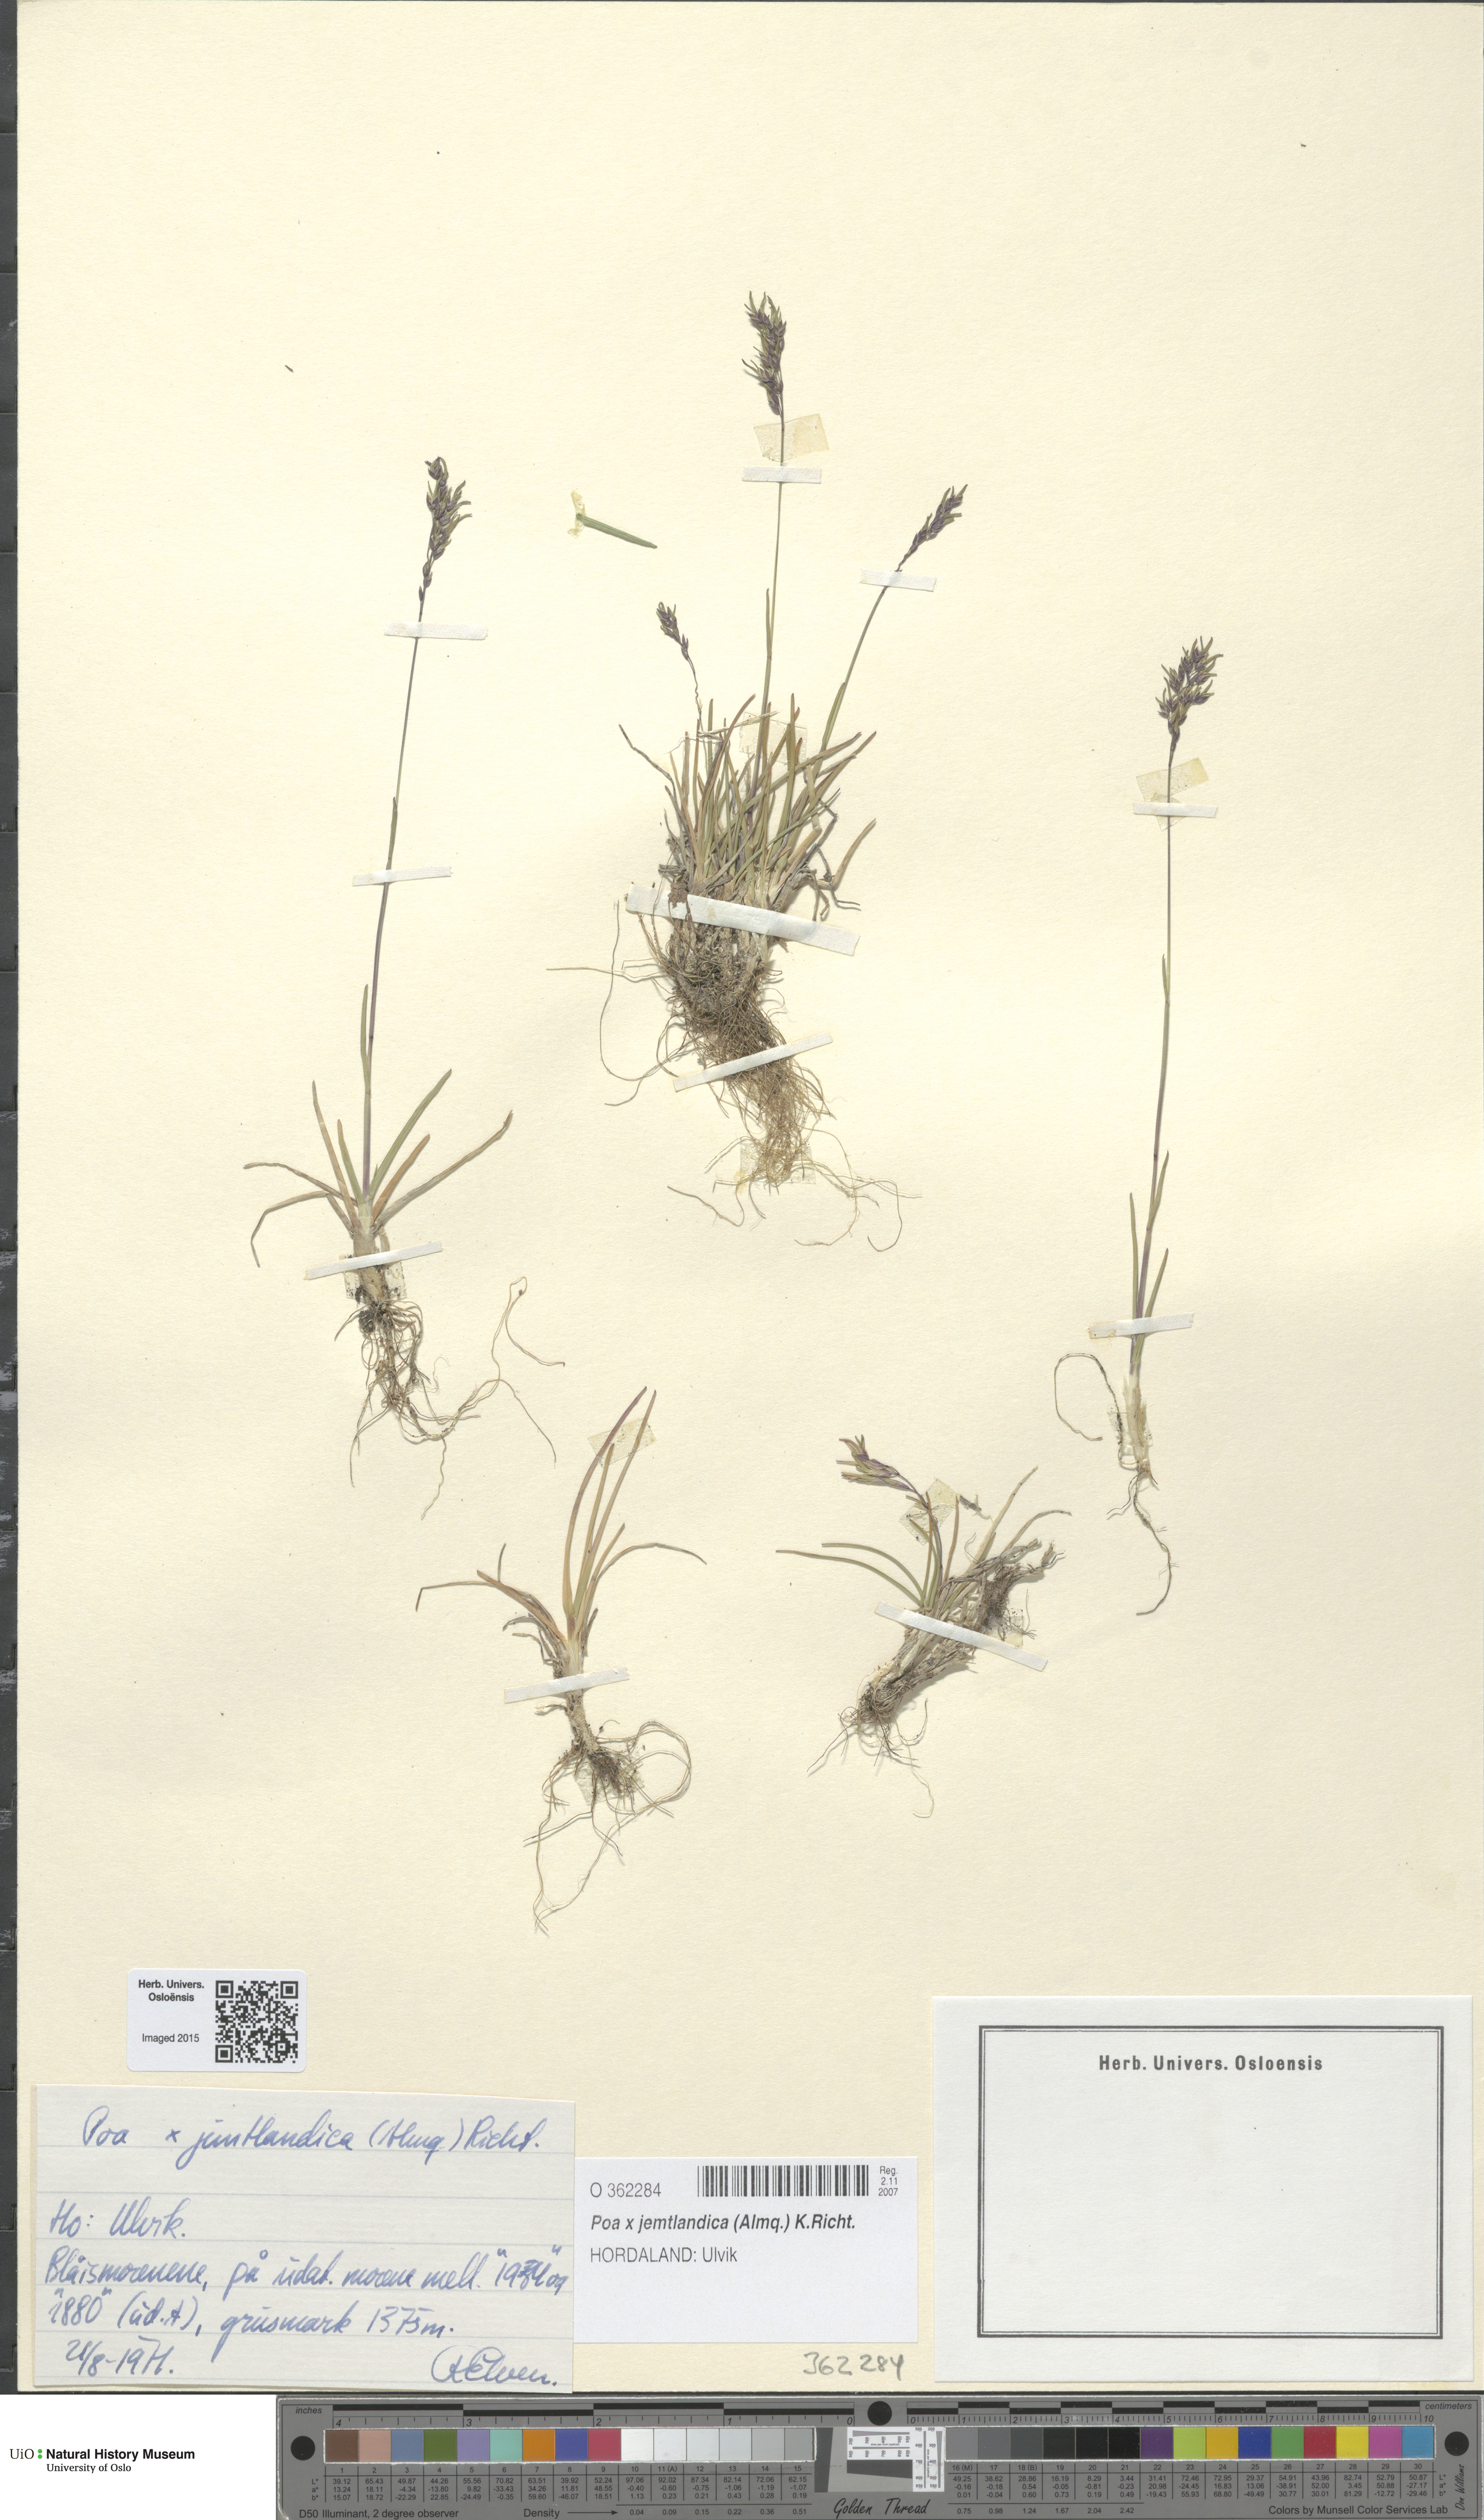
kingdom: Plantae
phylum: Tracheophyta
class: Liliopsida
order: Poales
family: Poaceae
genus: Poa
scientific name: Poa jemtlandica
